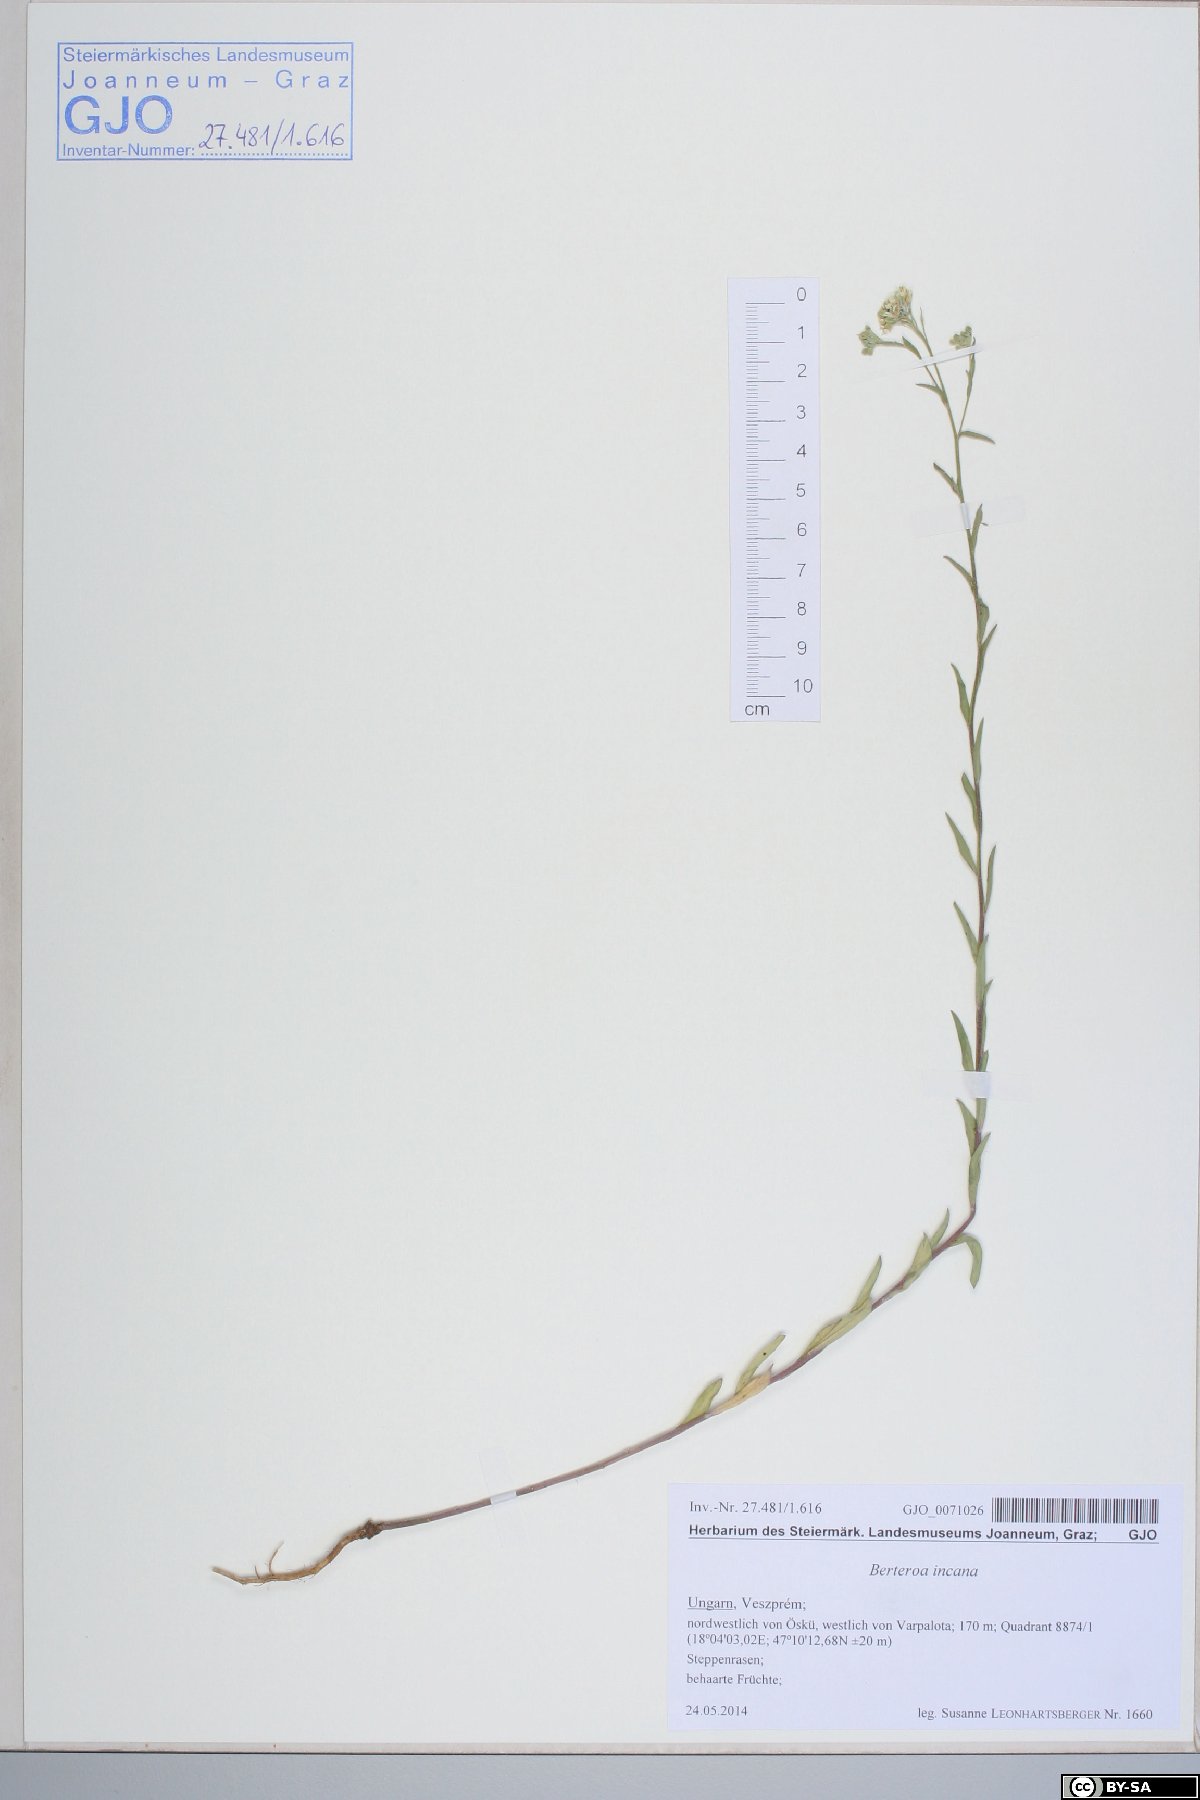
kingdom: Plantae
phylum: Tracheophyta
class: Magnoliopsida
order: Brassicales
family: Brassicaceae
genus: Berteroa
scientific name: Berteroa incana
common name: Hoary alison
